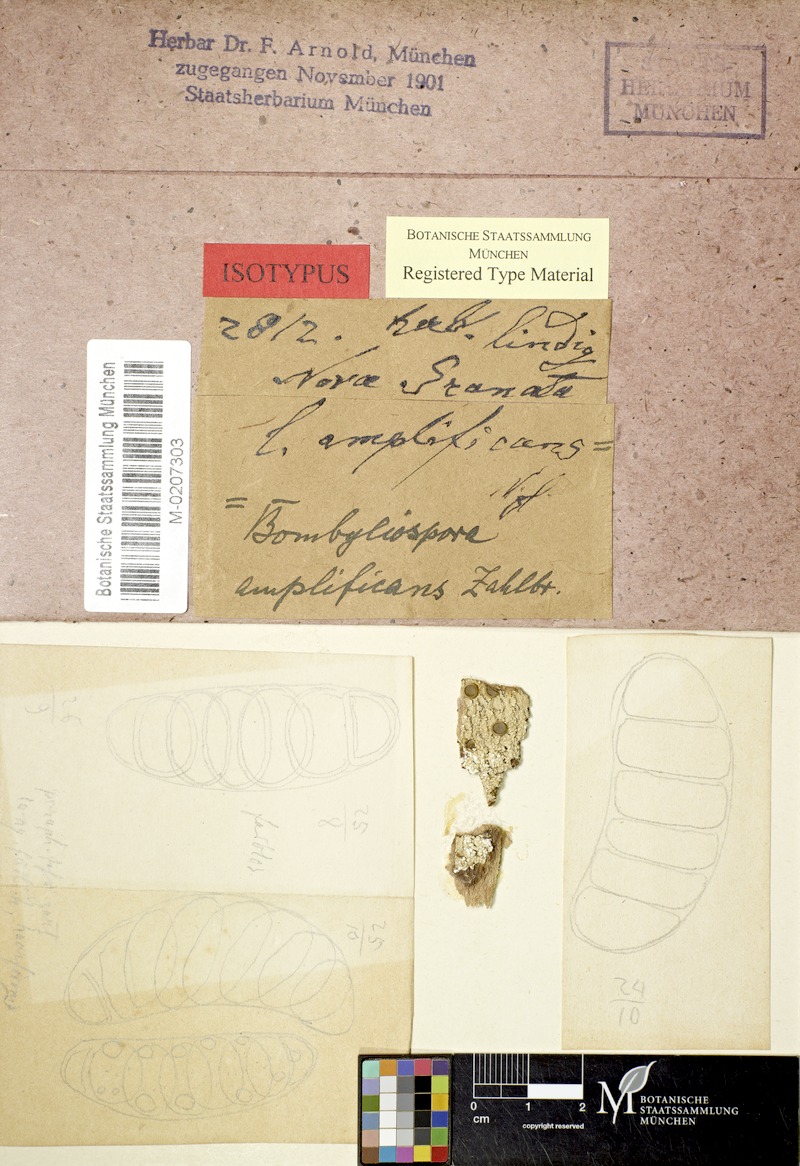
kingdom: Fungi
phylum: Ascomycota
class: Lecanoromycetes
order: Teloschistales
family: Megalosporaceae
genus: Megalospora
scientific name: Megalospora coccodes
